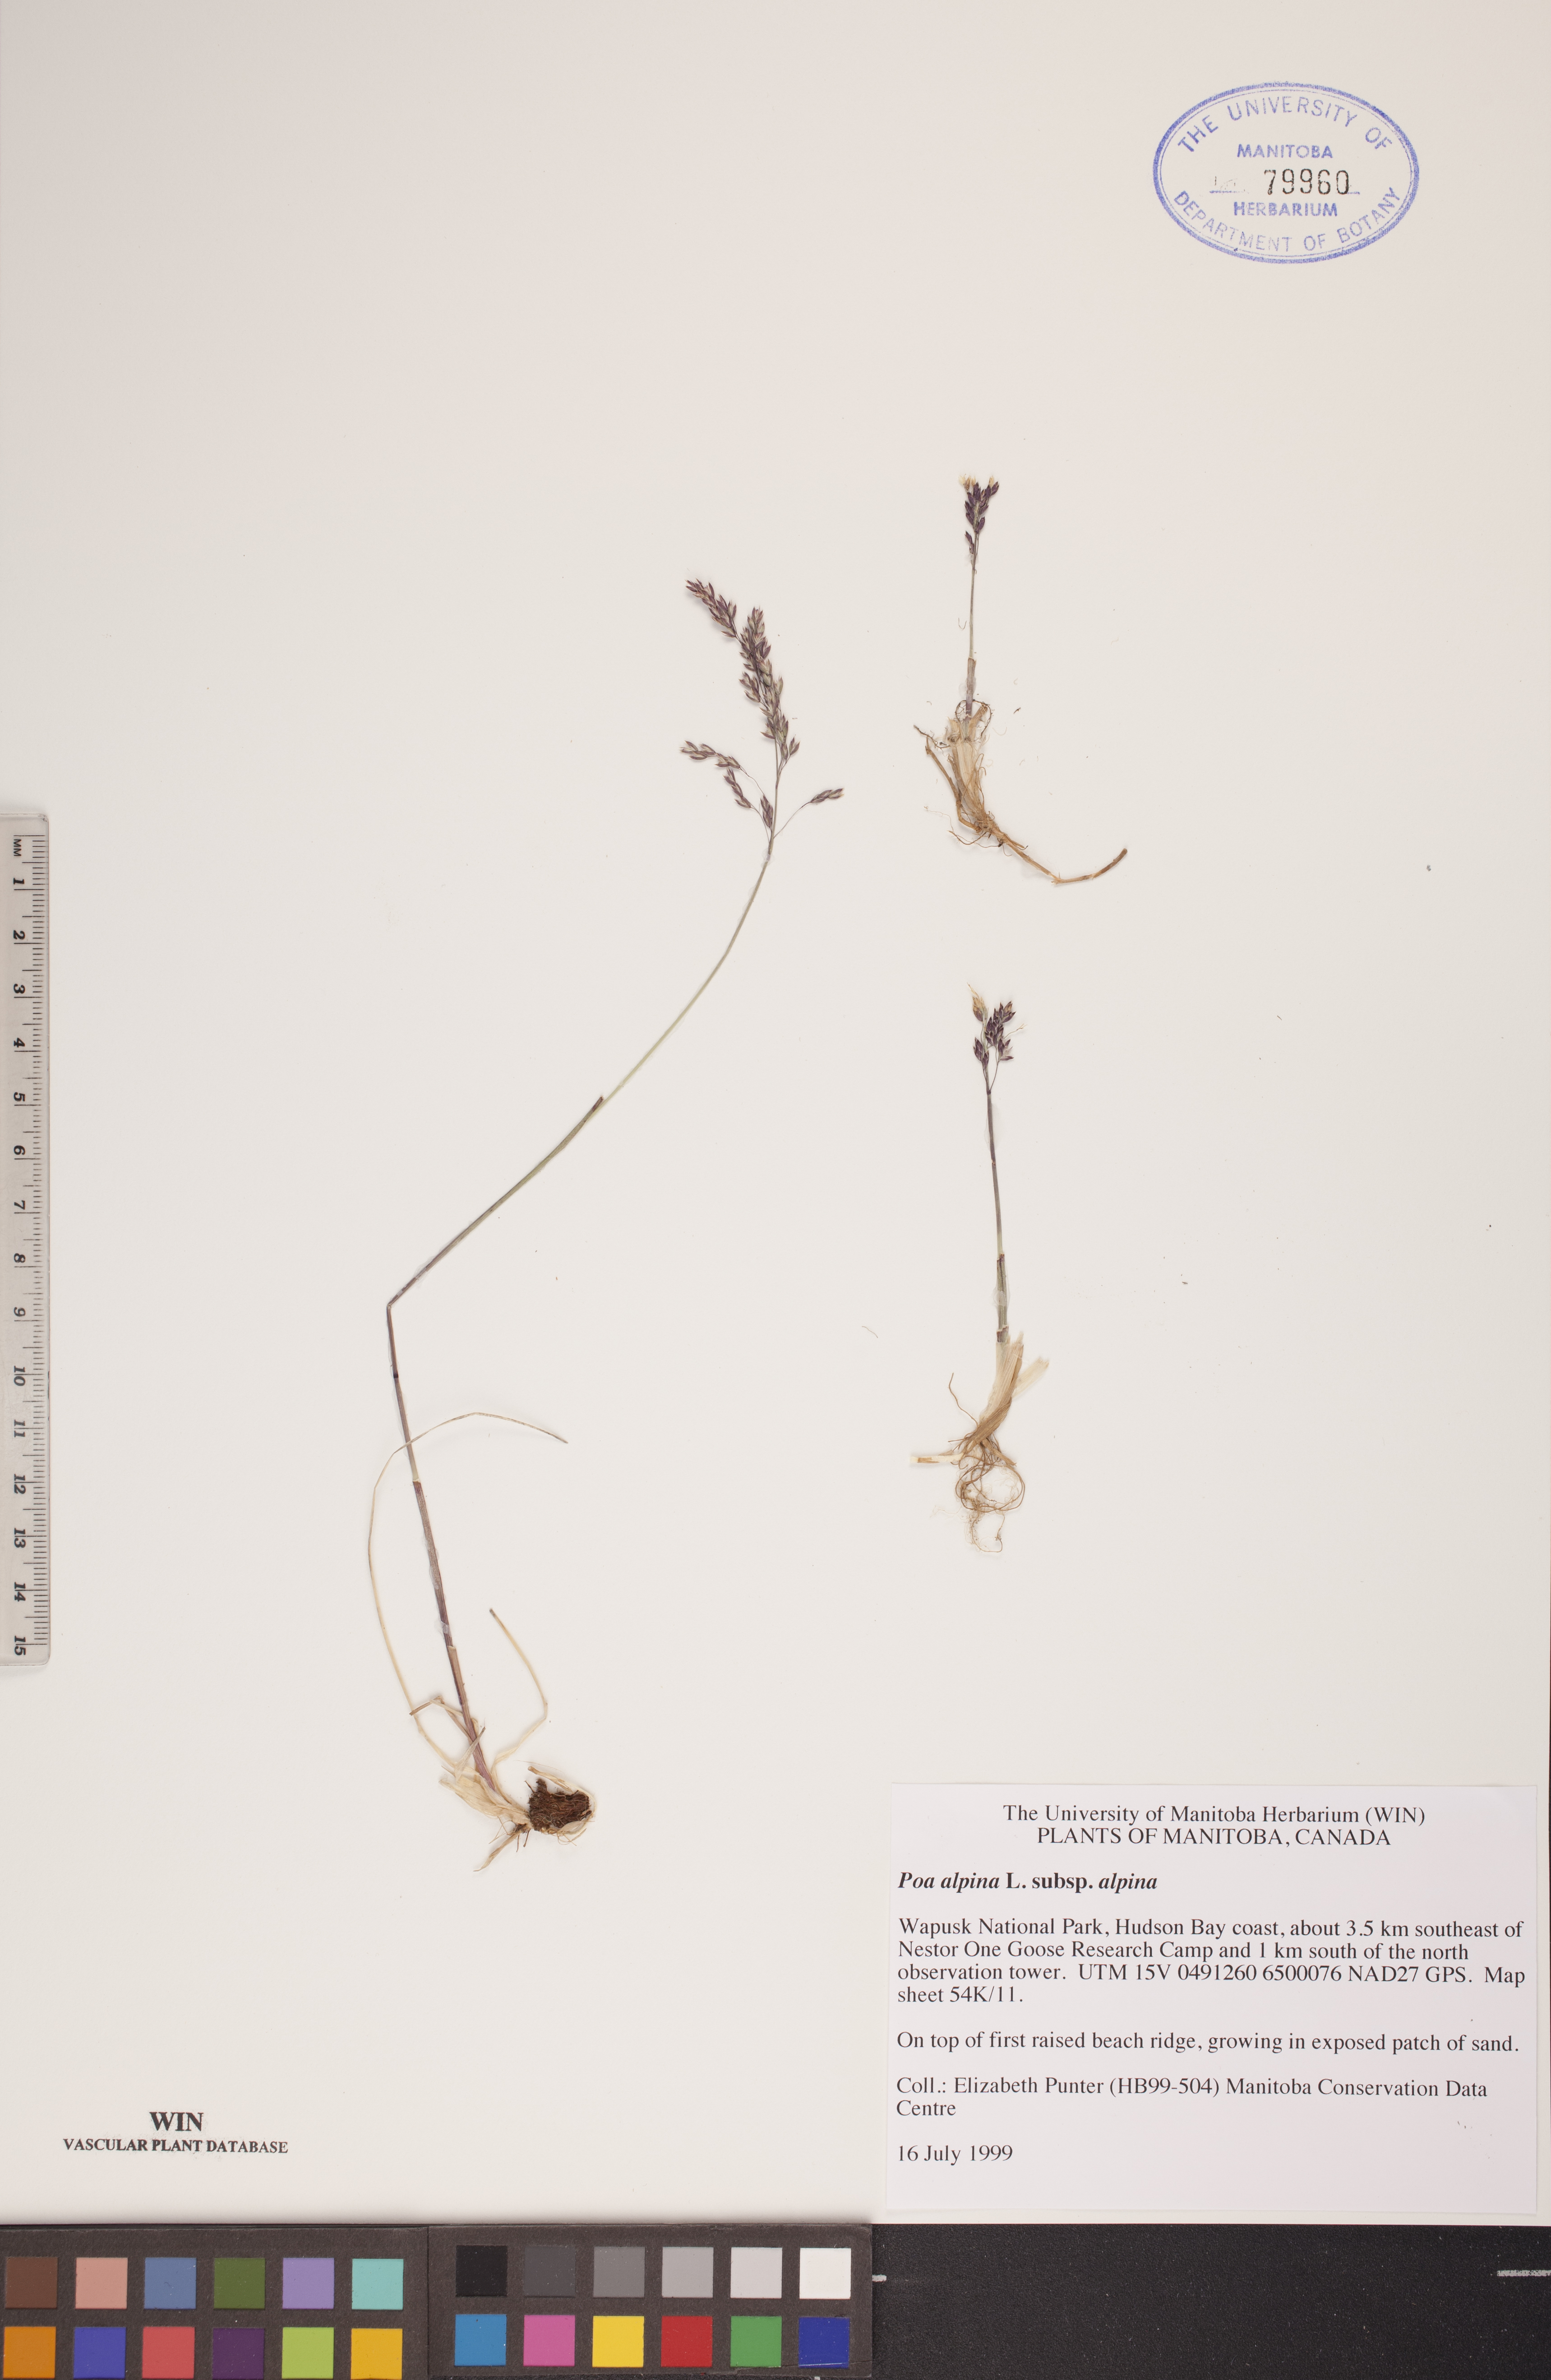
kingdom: Plantae
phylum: Tracheophyta
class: Liliopsida
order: Poales
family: Poaceae
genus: Poa
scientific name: Poa alpina
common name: Alpine bluegrass
